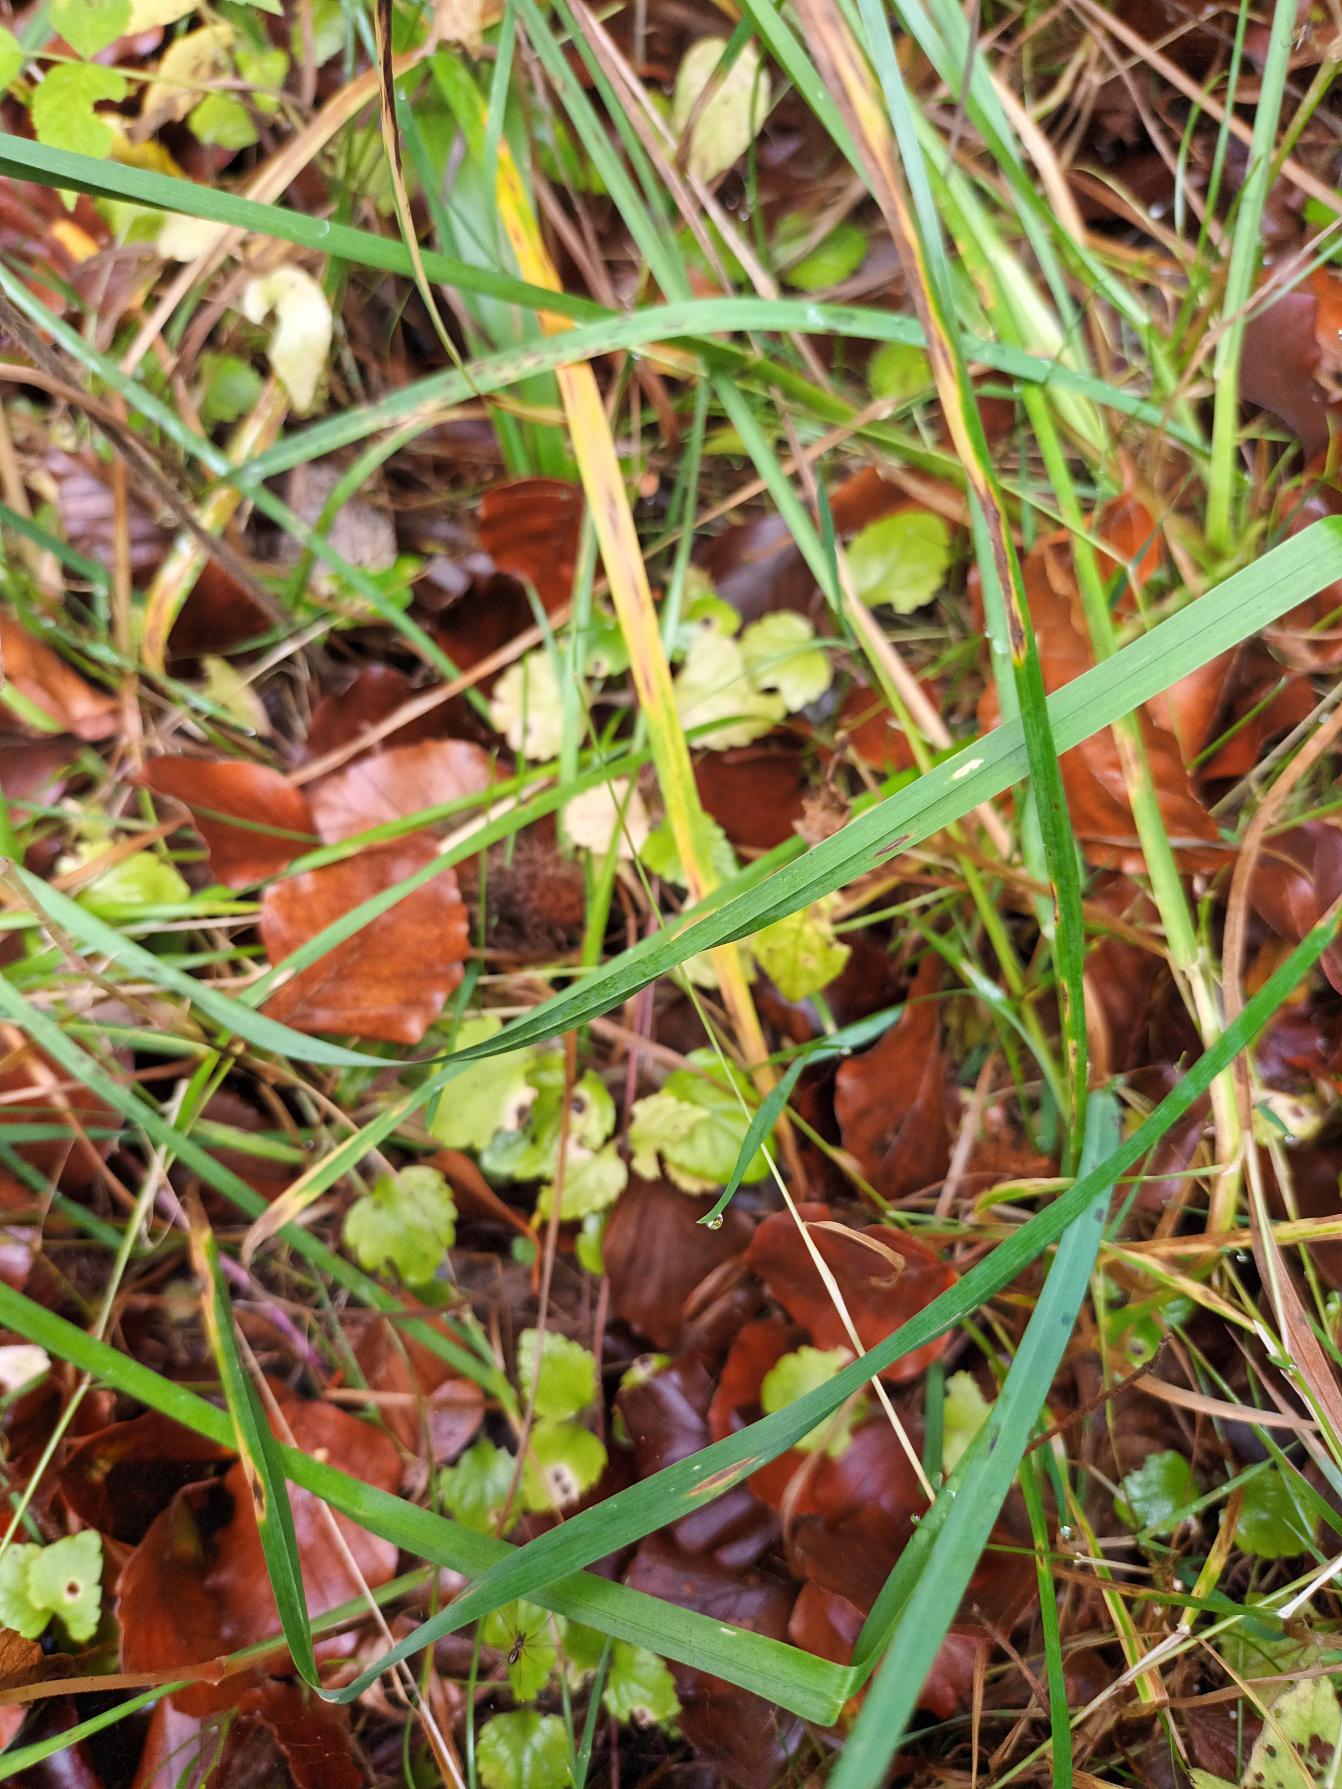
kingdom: Plantae
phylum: Tracheophyta
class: Magnoliopsida
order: Lamiales
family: Plantaginaceae
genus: Veronica
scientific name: Veronica montana
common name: Bjerg-ærenpris
